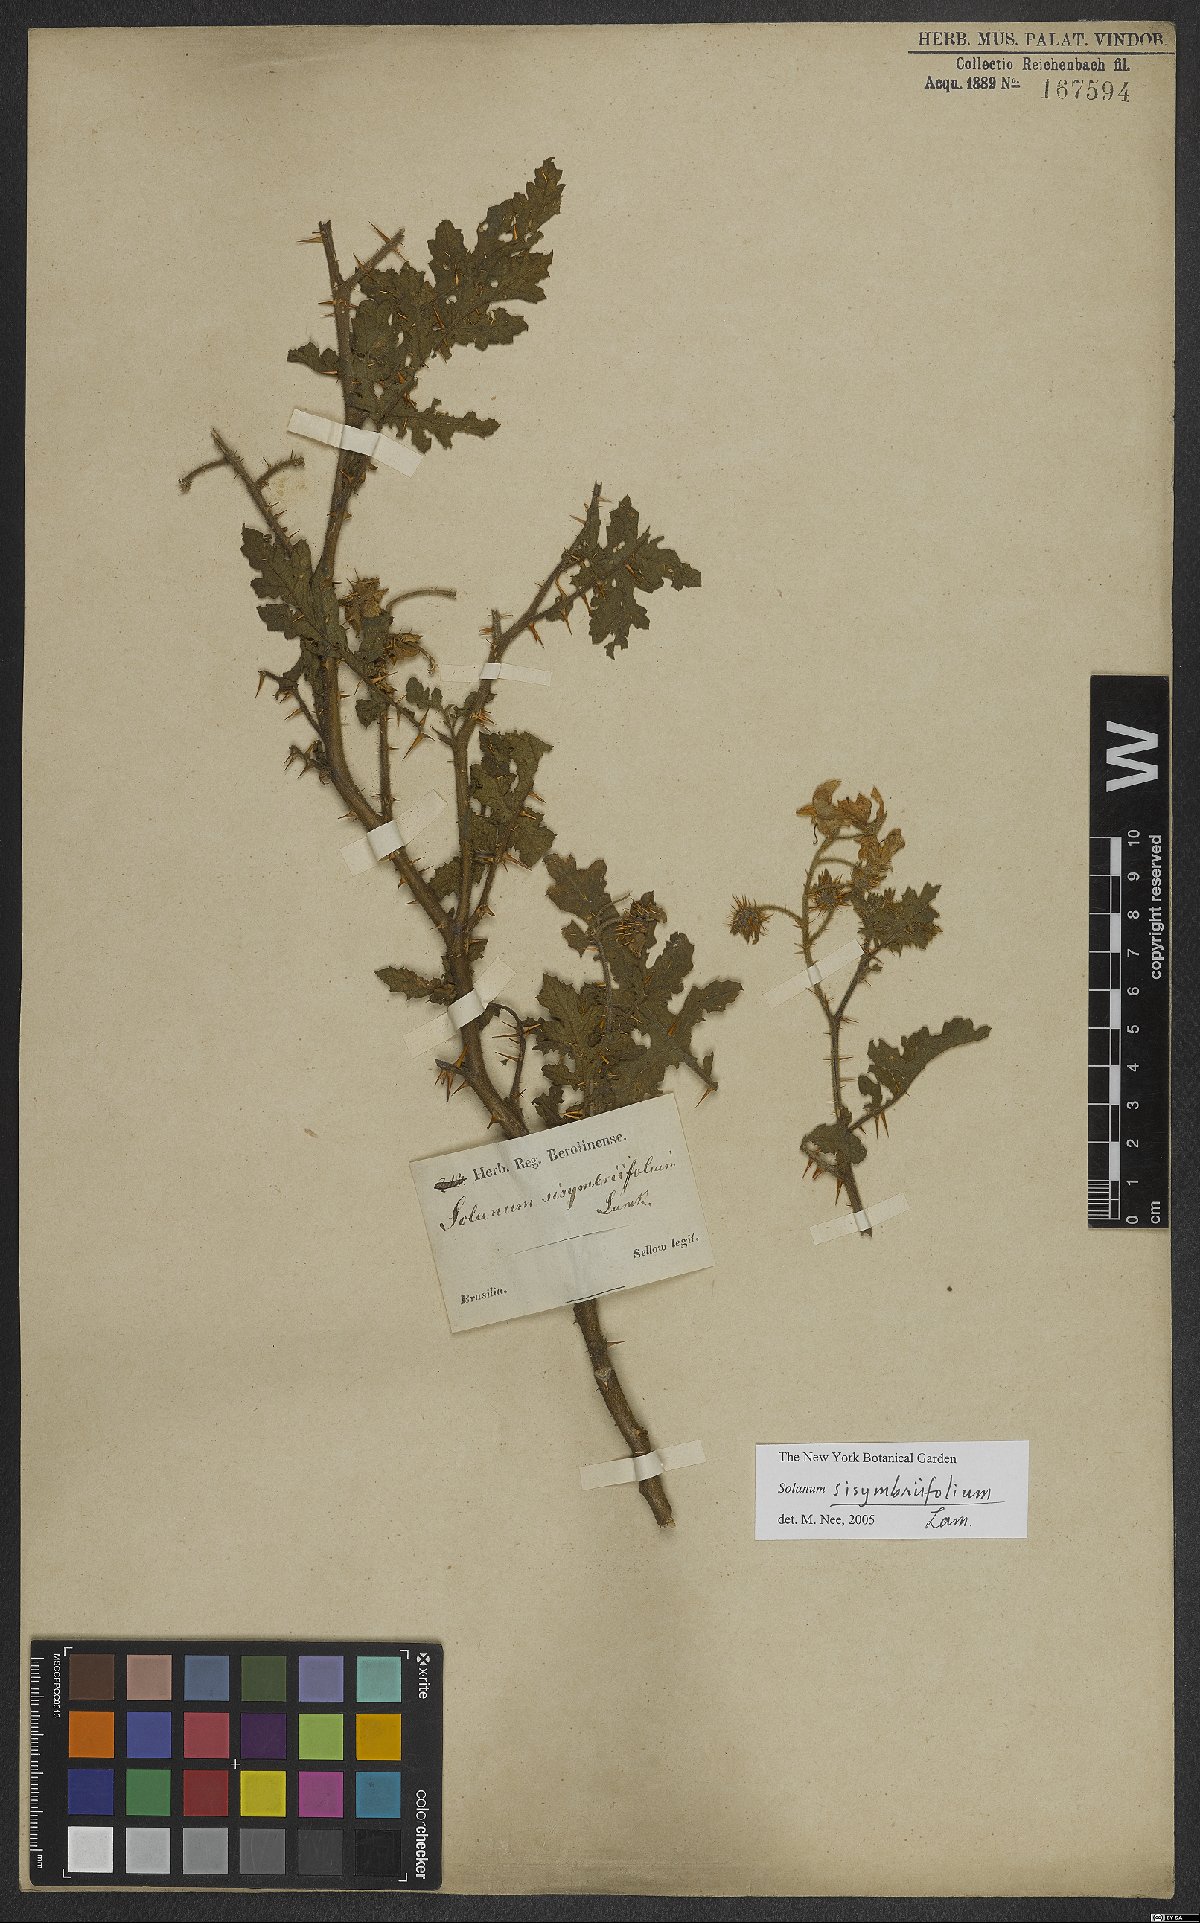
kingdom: Plantae
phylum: Tracheophyta
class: Magnoliopsida
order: Solanales
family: Solanaceae
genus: Solanum
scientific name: Solanum sisymbriifolium
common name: Red buffalo-bur
